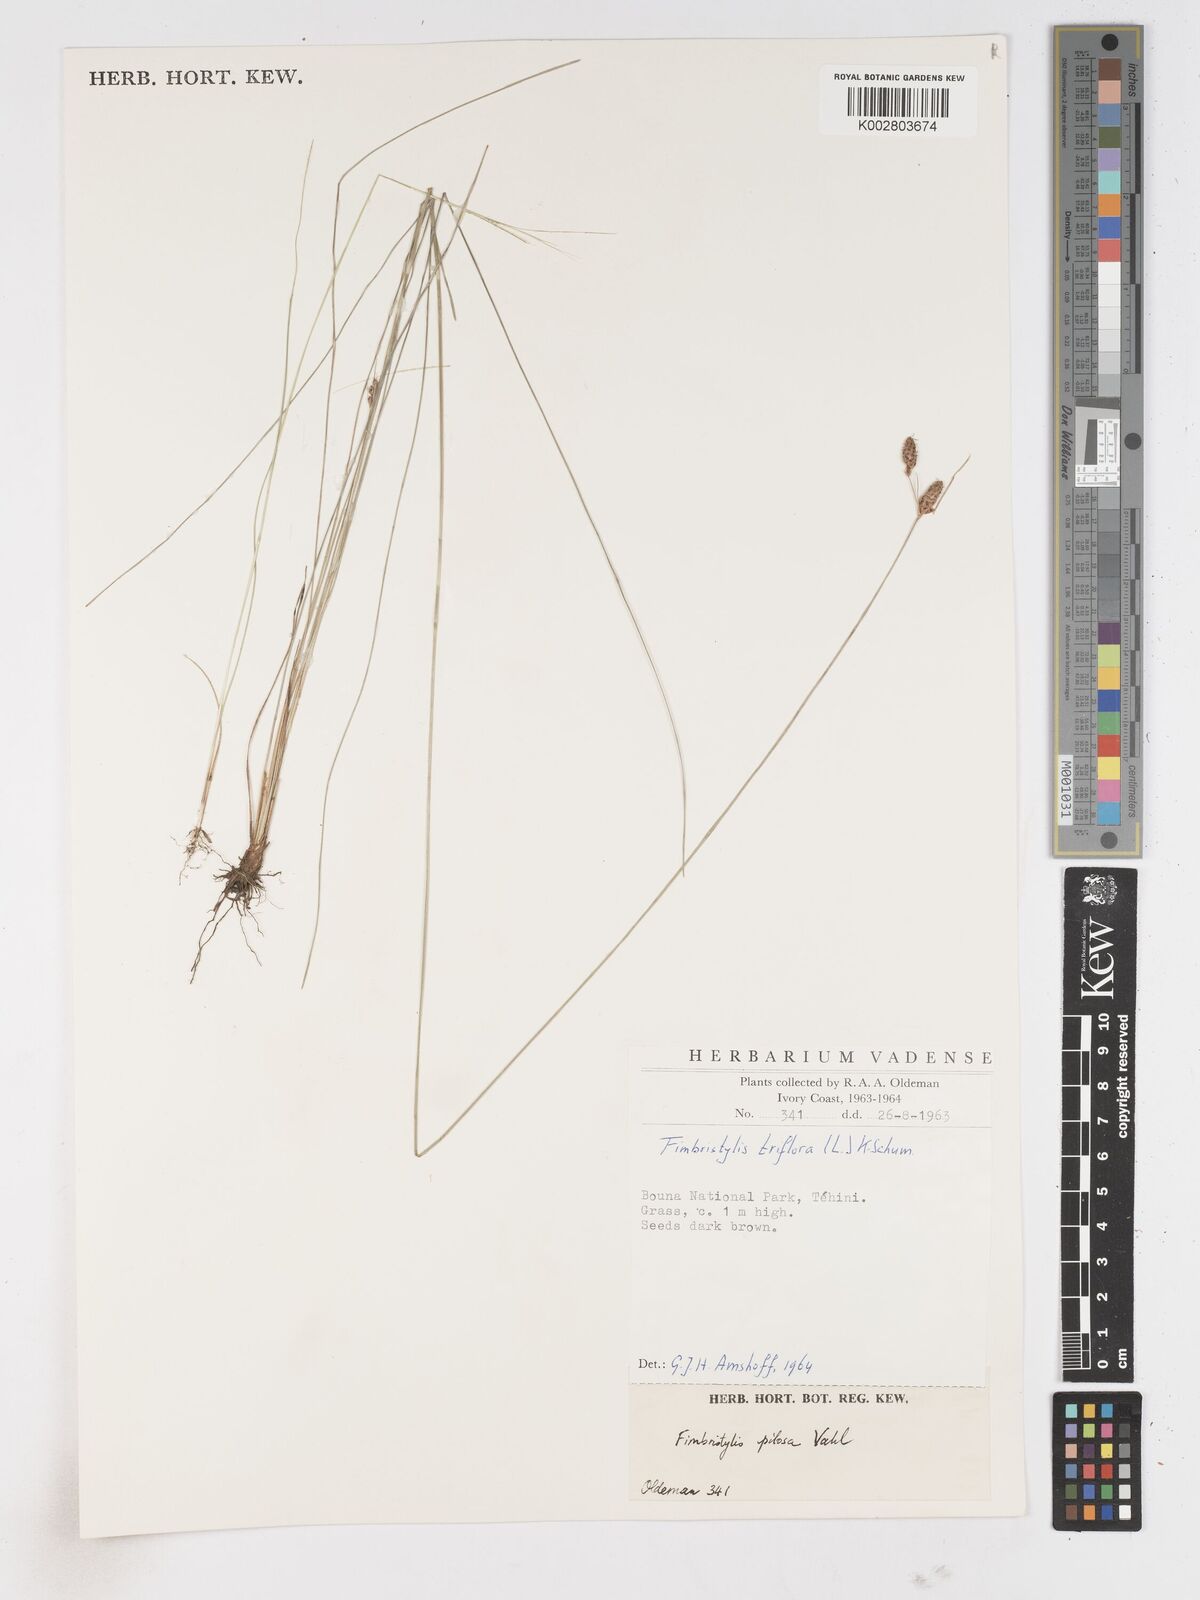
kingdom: Plantae
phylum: Tracheophyta
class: Liliopsida
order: Poales
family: Cyperaceae
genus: Fimbristylis
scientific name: Fimbristylis pilosa
